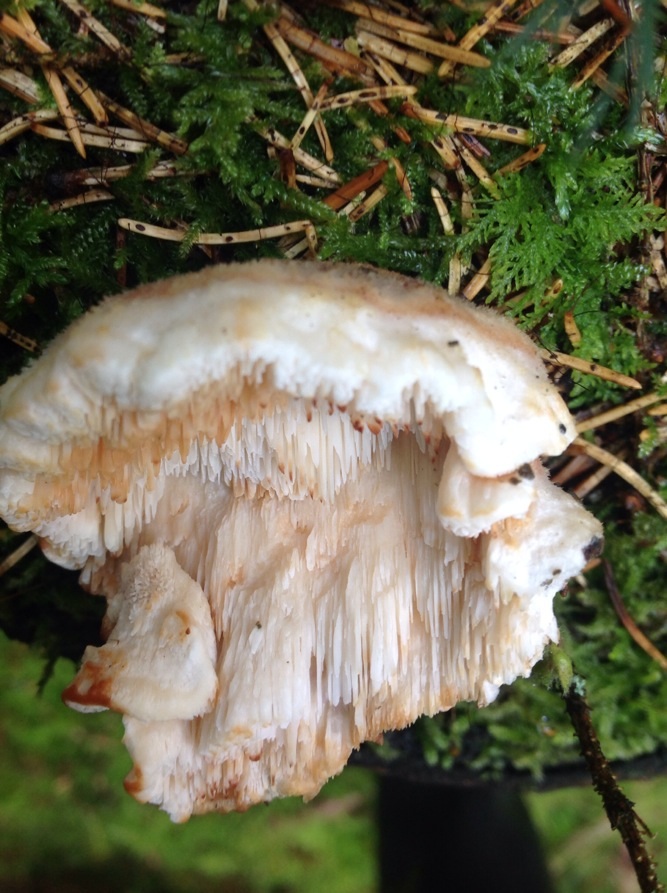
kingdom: Fungi
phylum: Basidiomycota
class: Agaricomycetes
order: Polyporales
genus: Fuscopostia
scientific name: Fuscopostia fragilis
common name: brunende kødporesvamp
